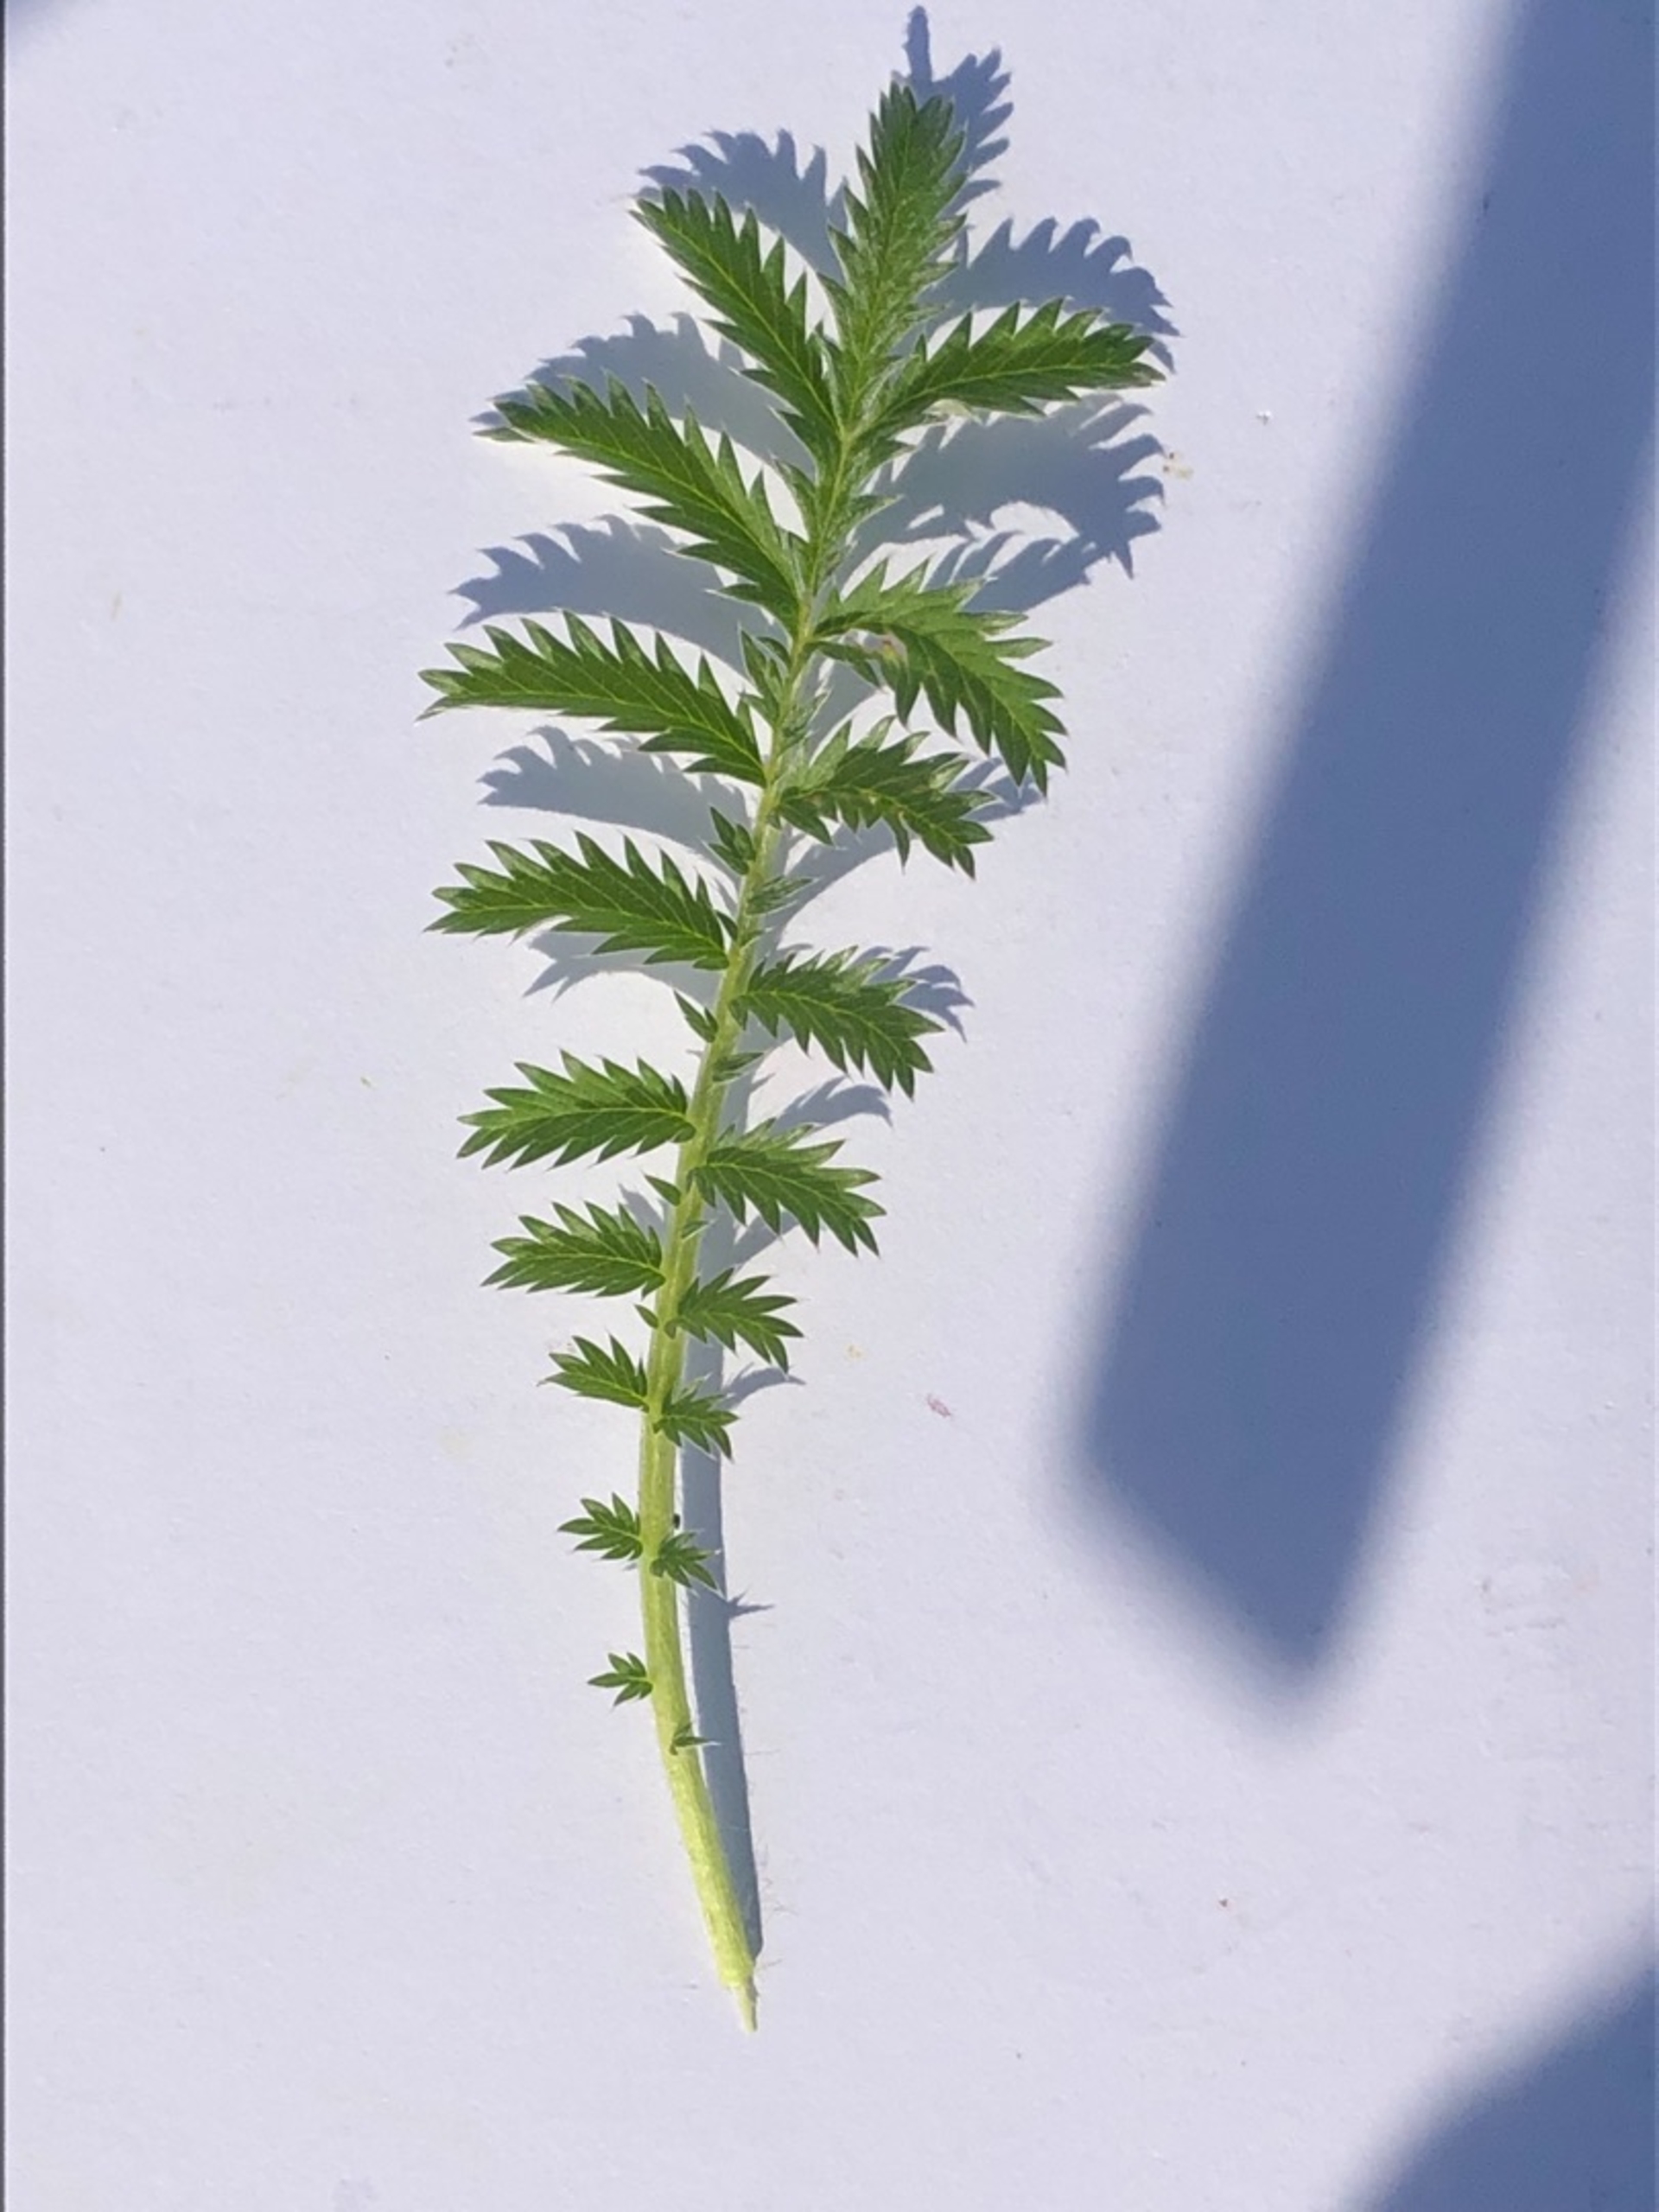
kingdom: Plantae
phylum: Tracheophyta
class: Magnoliopsida
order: Rosales
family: Rosaceae
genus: Argentina
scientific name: Argentina anserina
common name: Gåsepotentil
